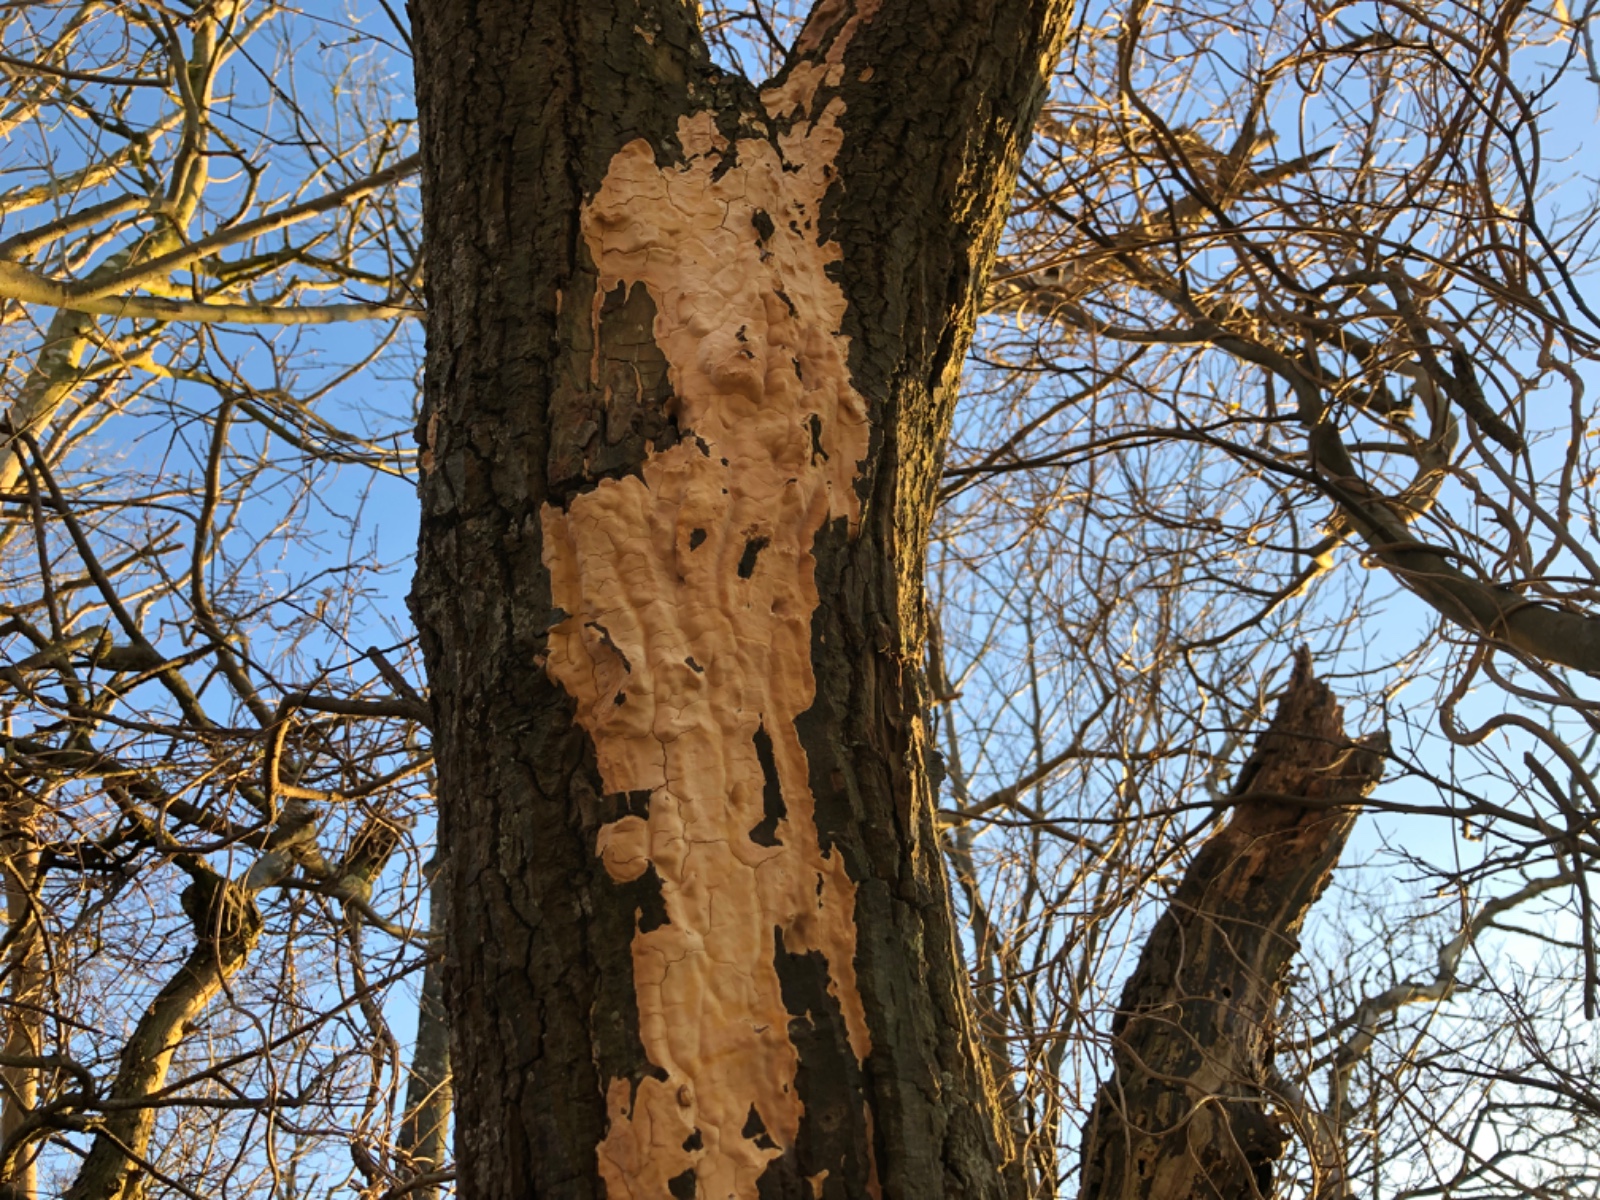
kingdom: Fungi
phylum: Basidiomycota
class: Agaricomycetes
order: Russulales
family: Peniophoraceae
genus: Scytinostroma
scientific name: Scytinostroma hemidichophyticum
